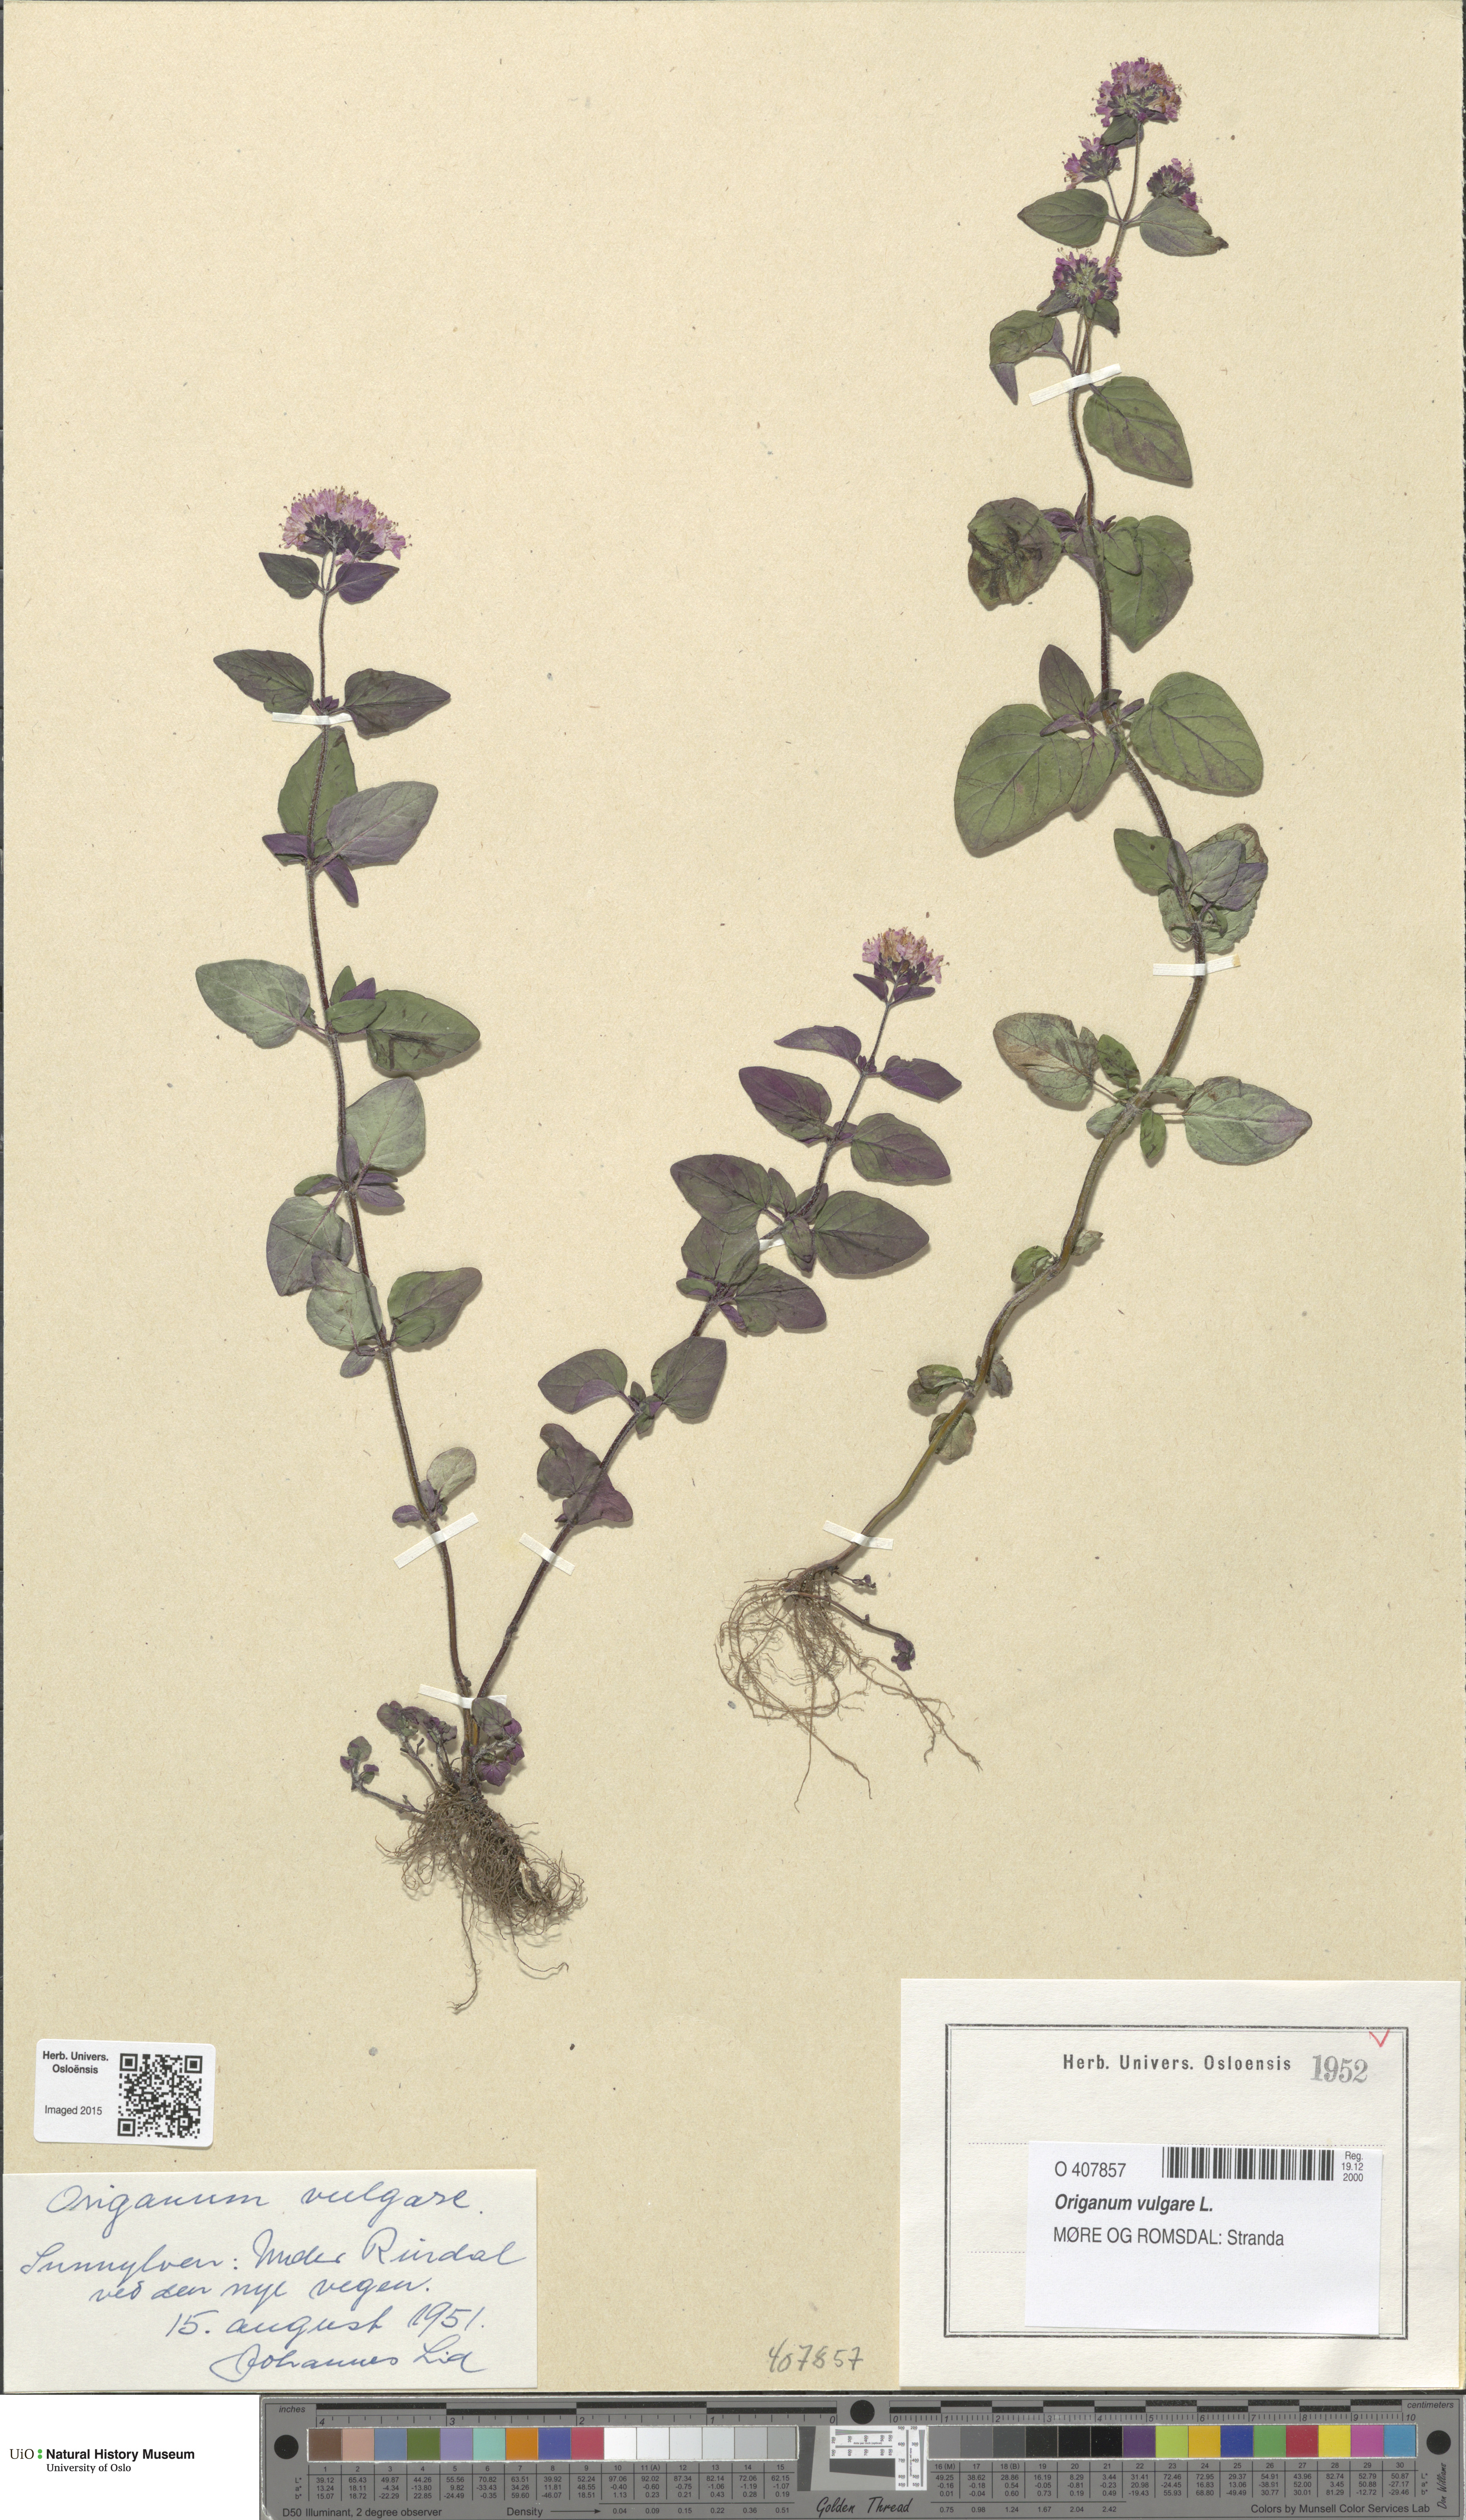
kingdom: Plantae
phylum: Tracheophyta
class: Magnoliopsida
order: Lamiales
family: Lamiaceae
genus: Origanum
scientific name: Origanum vulgare
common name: Wild marjoram
